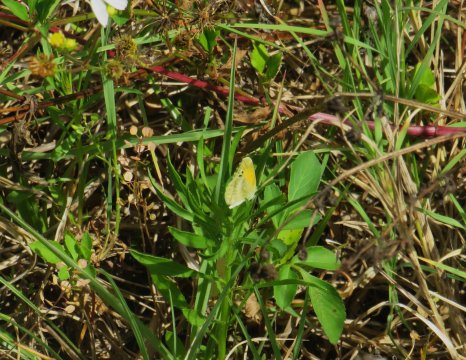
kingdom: Animalia
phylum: Arthropoda
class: Insecta
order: Lepidoptera
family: Pieridae
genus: Nathalis
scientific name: Nathalis iole
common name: Dainty Sulphur
